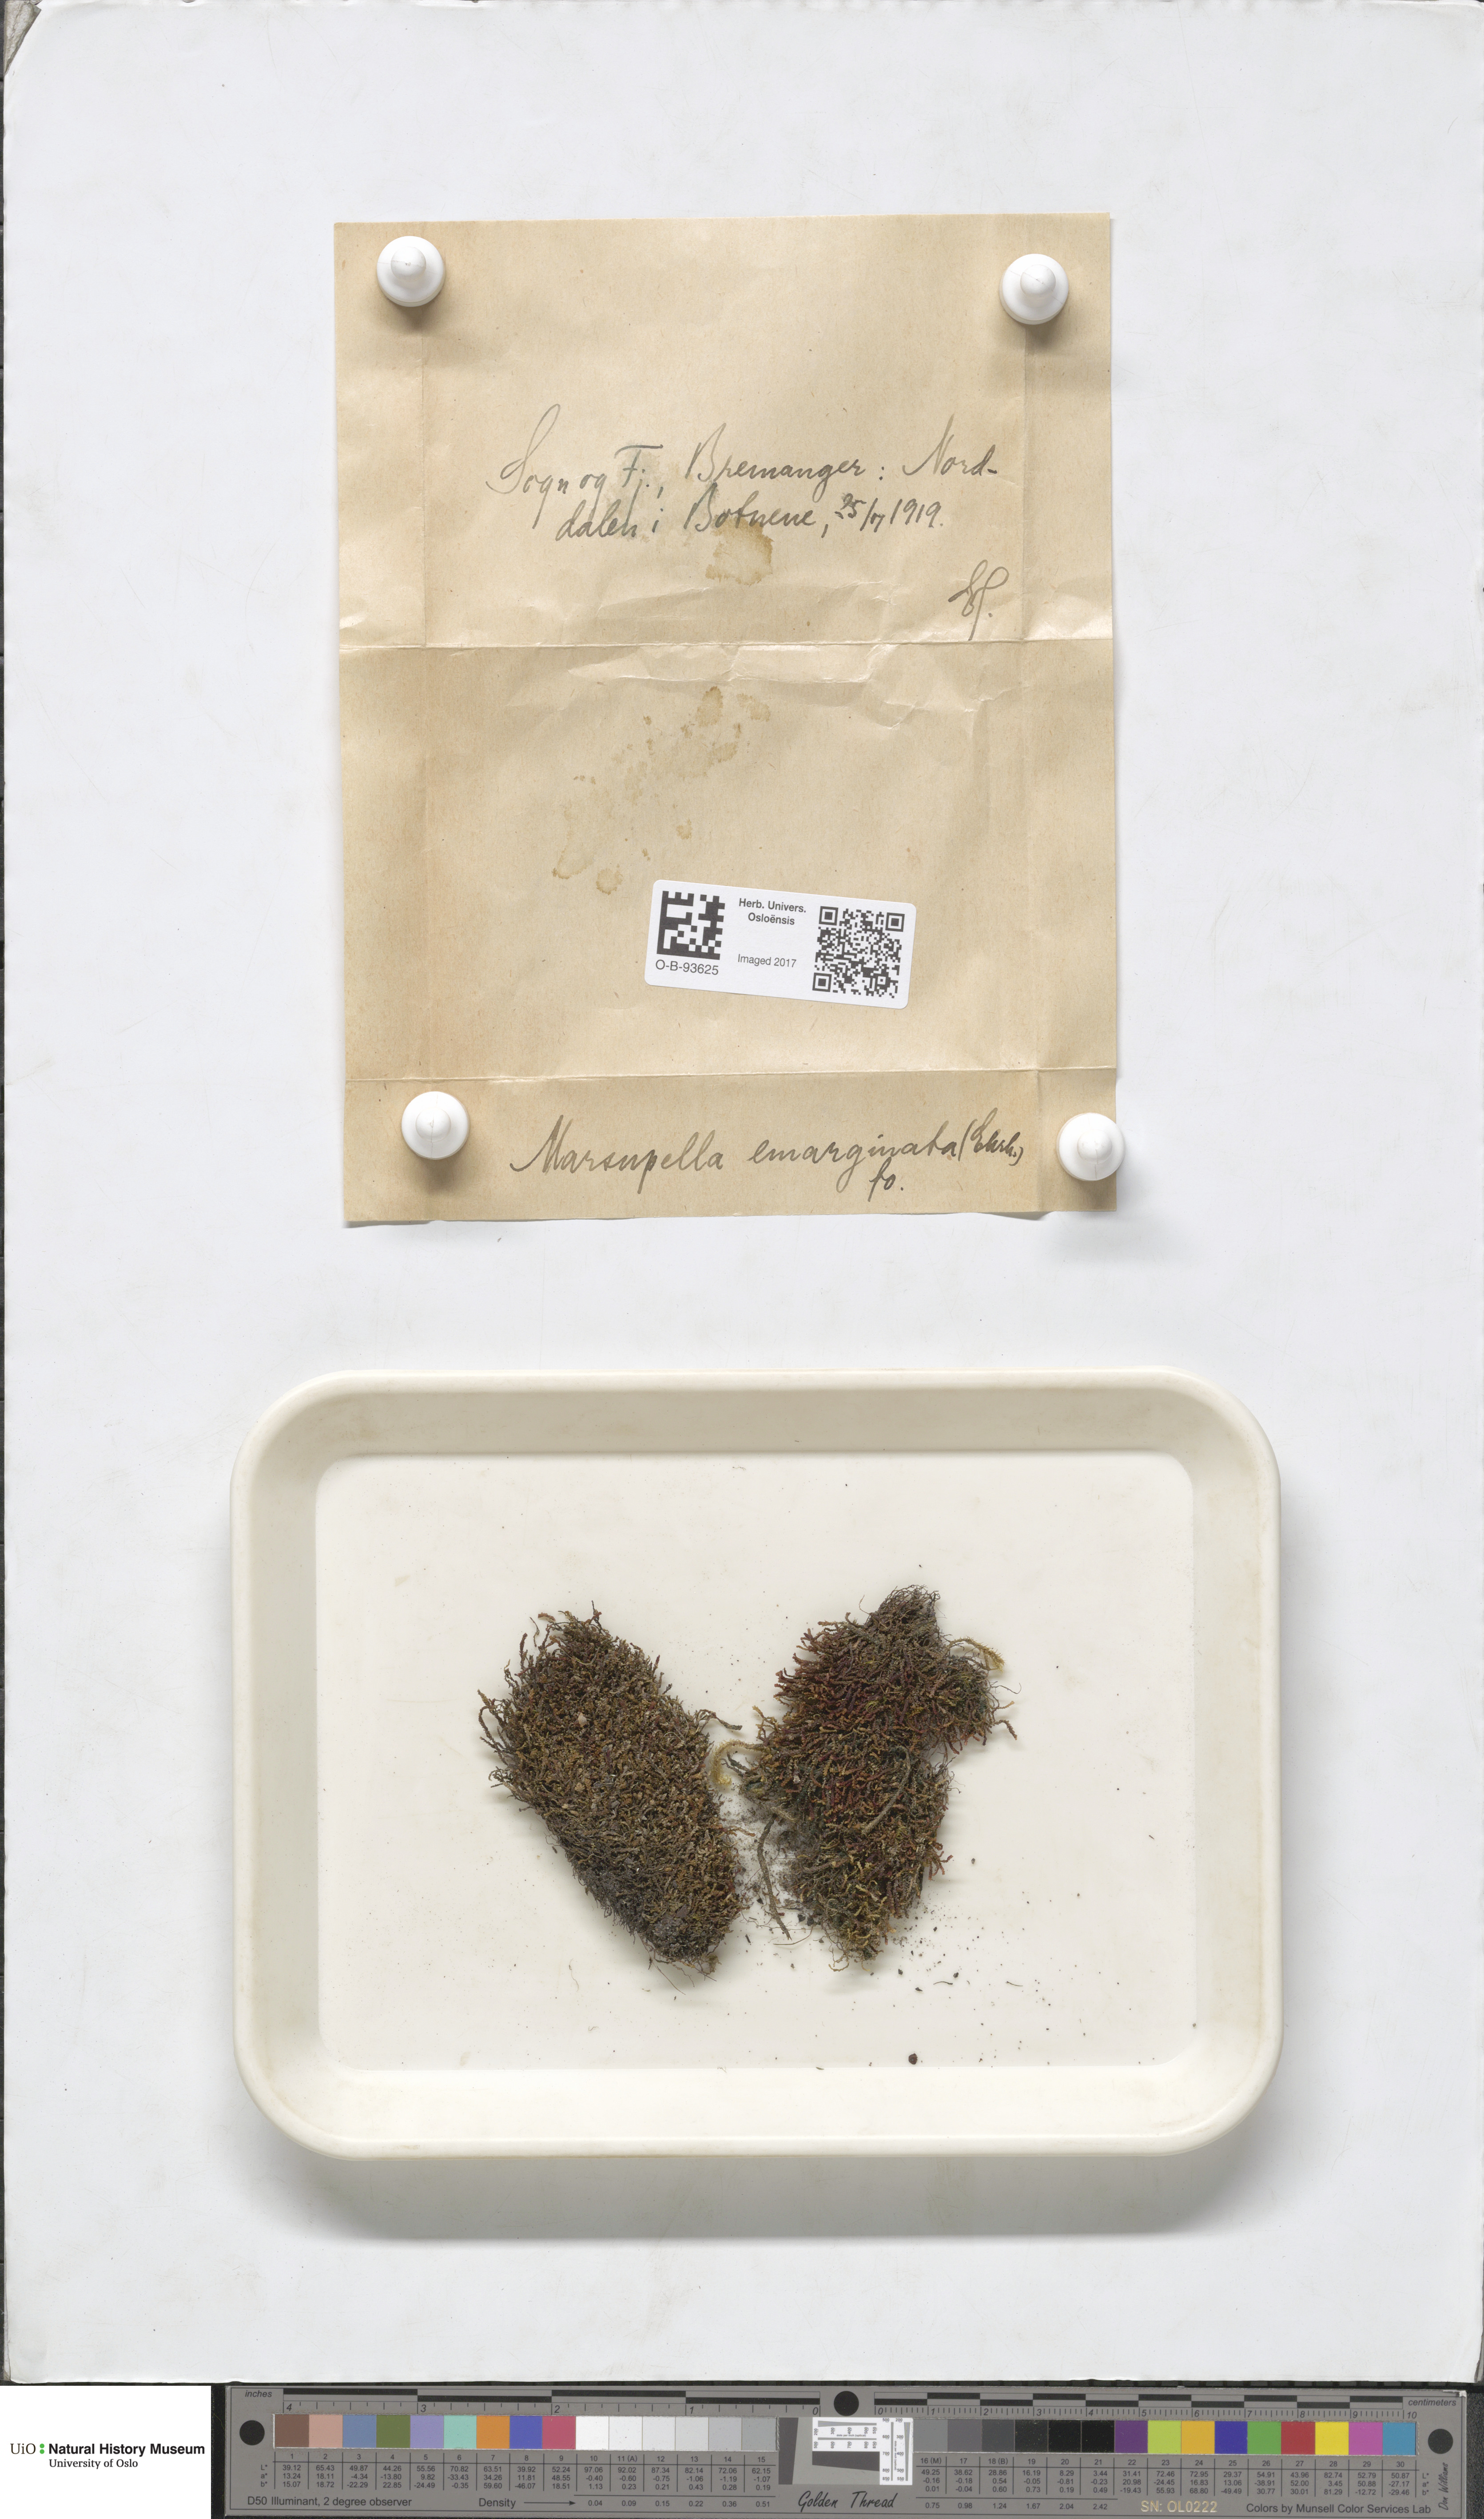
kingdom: Plantae
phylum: Marchantiophyta
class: Jungermanniopsida
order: Jungermanniales
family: Gymnomitriaceae
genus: Marsupella
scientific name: Marsupella emarginata
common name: Notched rustwort
